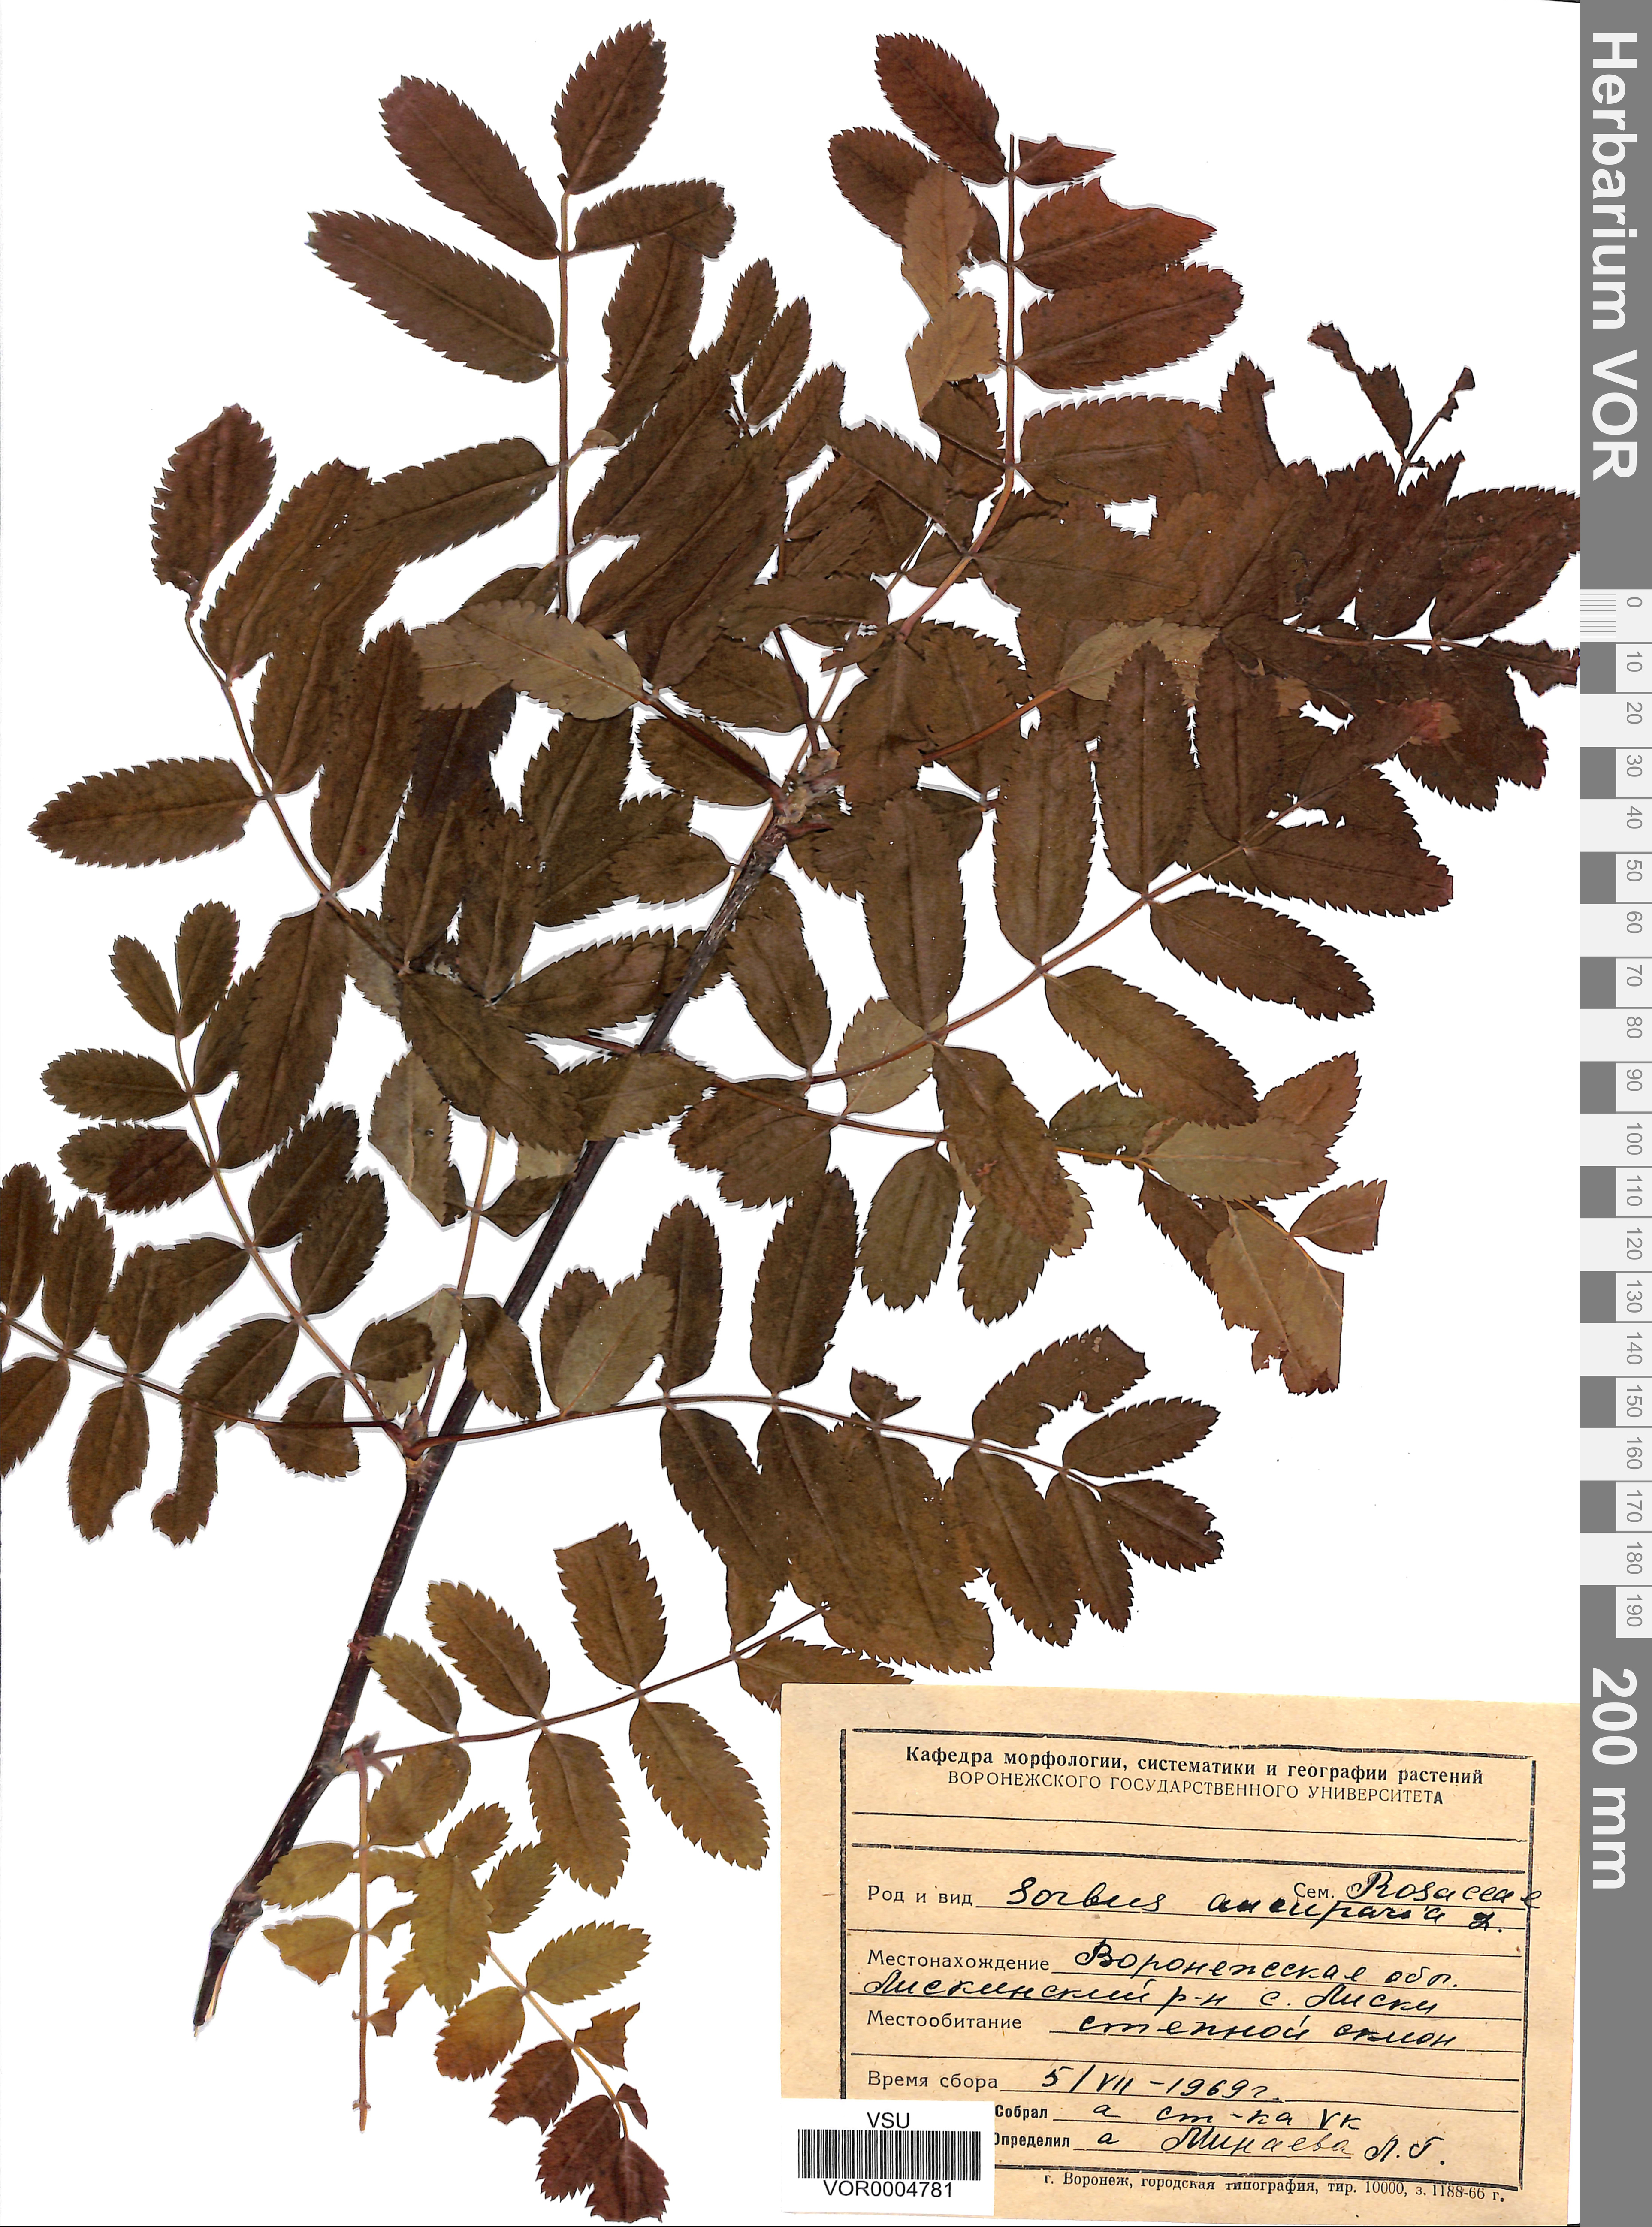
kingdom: Plantae
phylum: Tracheophyta
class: Magnoliopsida
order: Rosales
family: Rosaceae
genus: Sorbus
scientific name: Sorbus aucuparia
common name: Rowan
